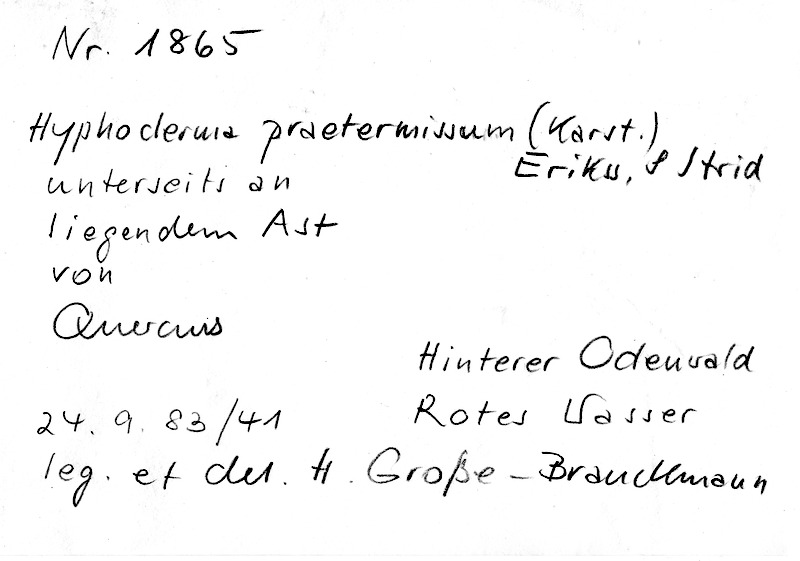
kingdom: Plantae
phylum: Tracheophyta
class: Magnoliopsida
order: Fagales
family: Fagaceae
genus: Quercus
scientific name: Quercus
